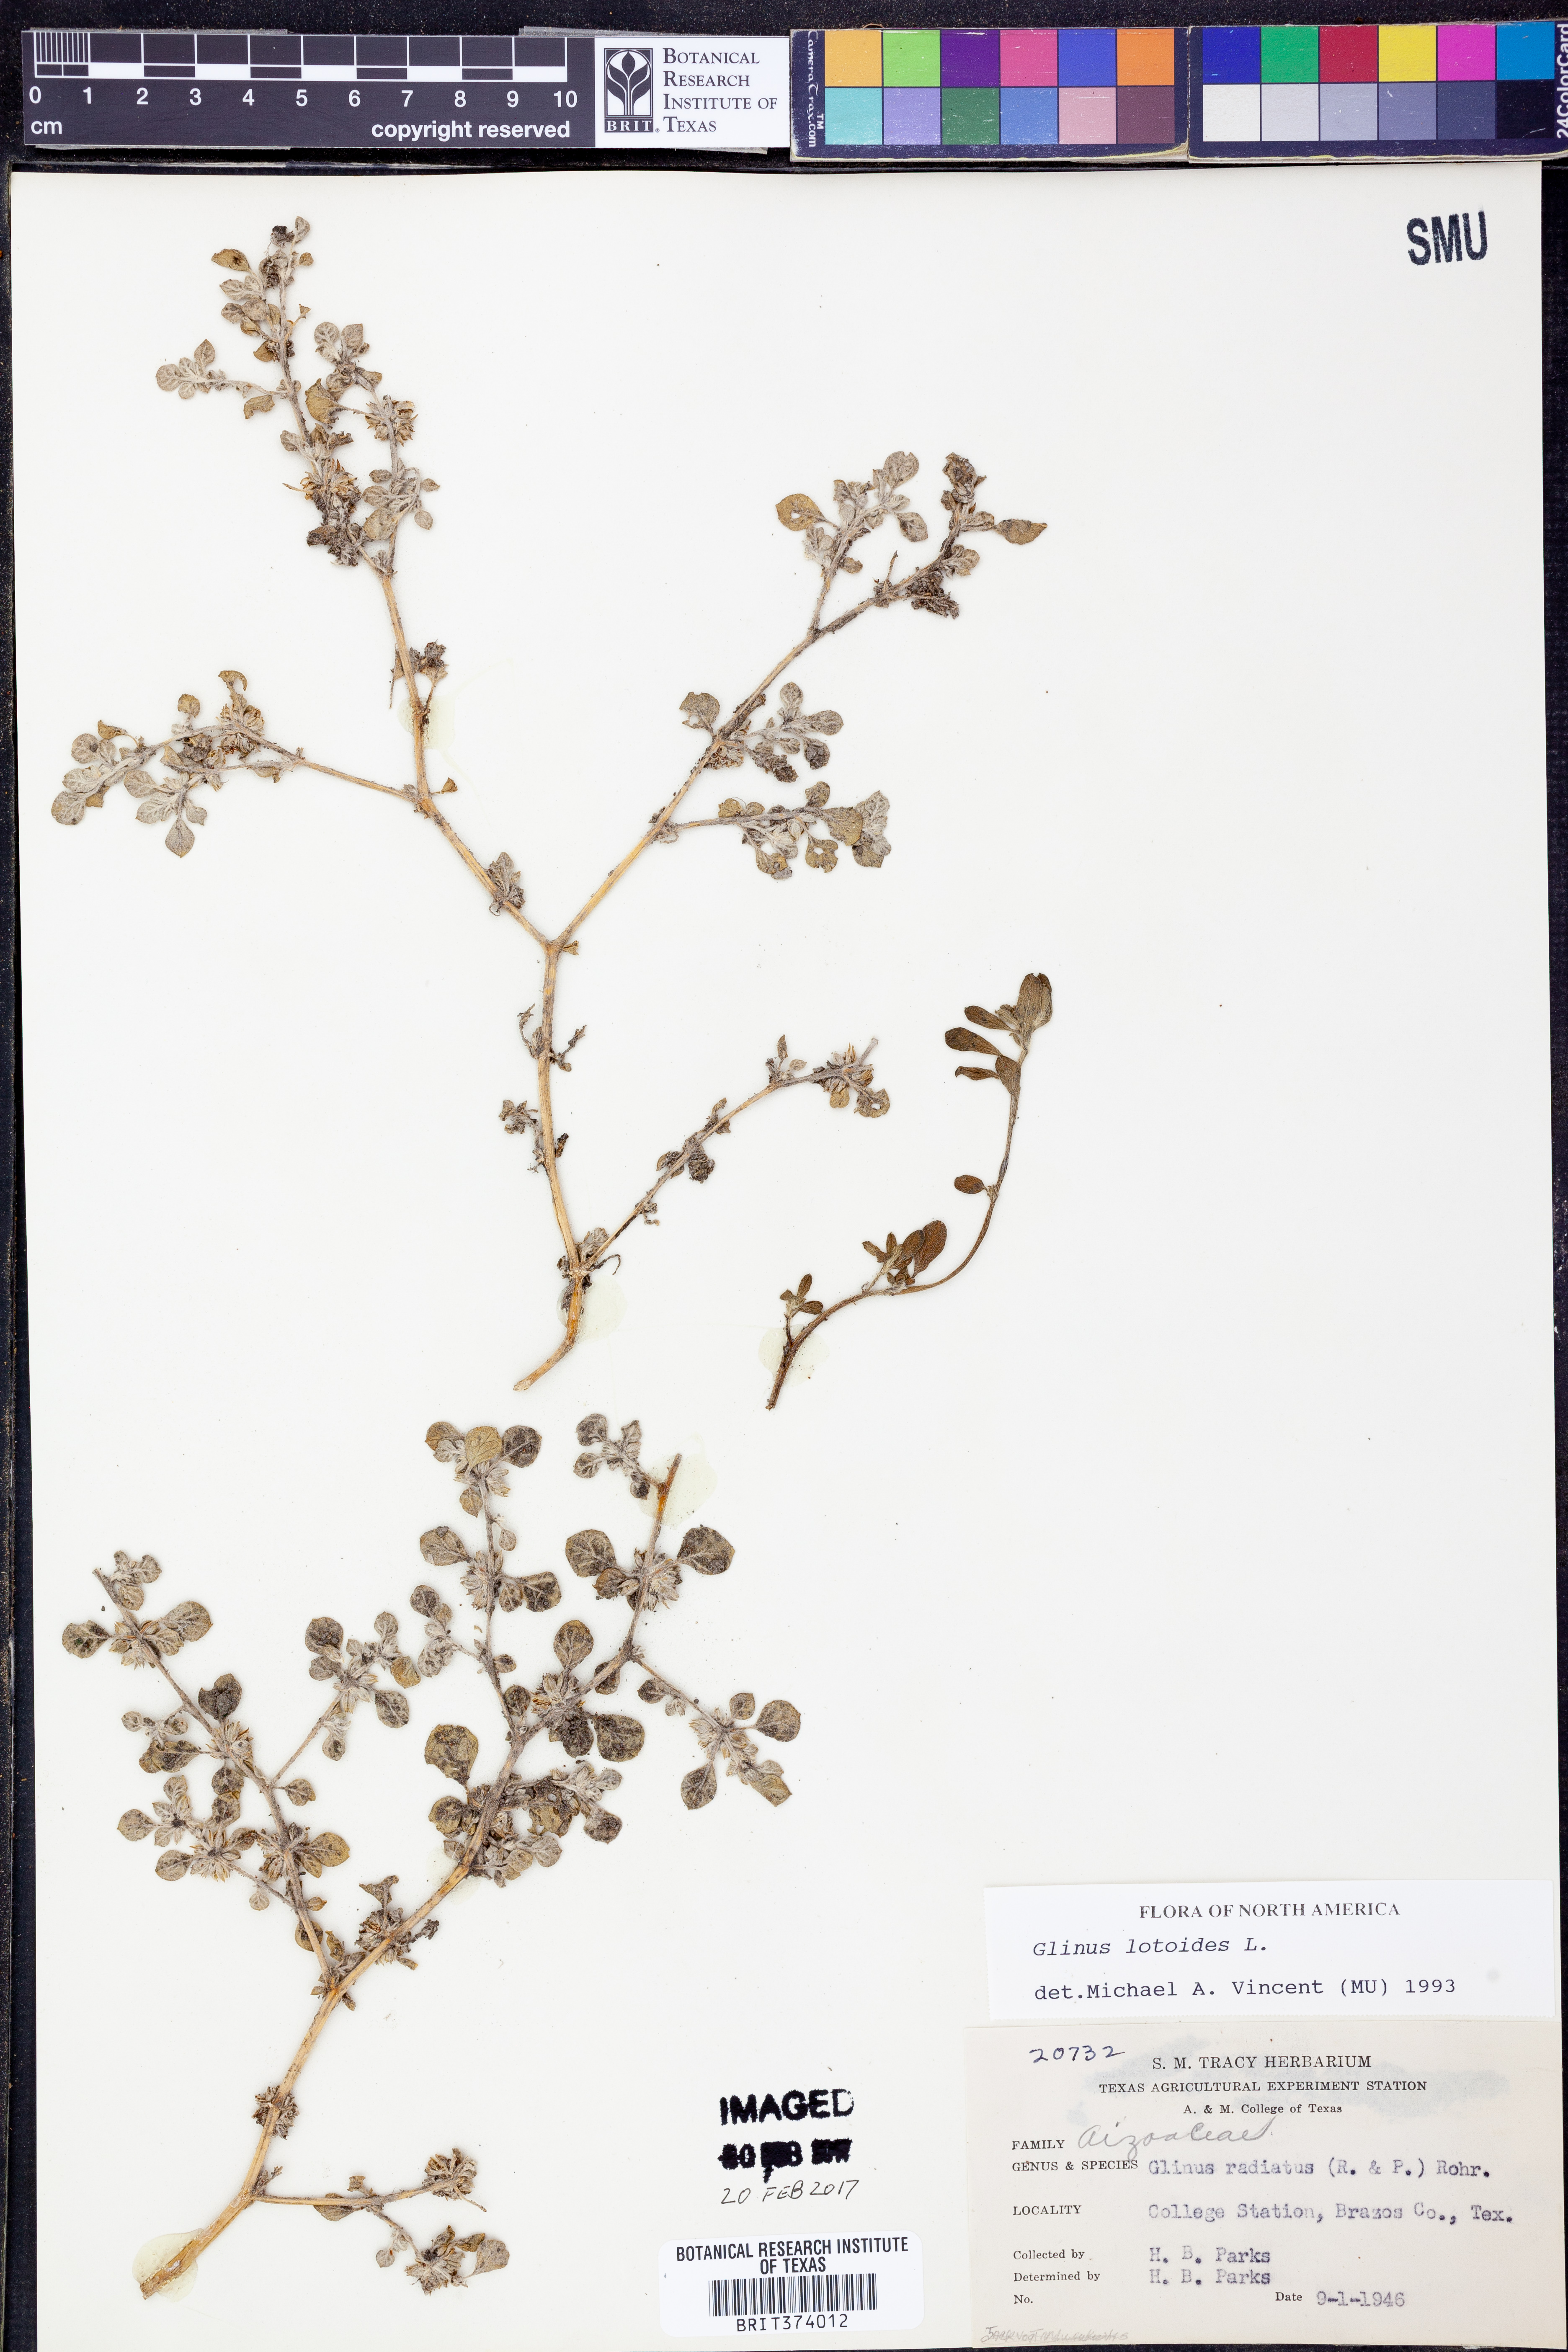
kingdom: Plantae
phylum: Tracheophyta
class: Magnoliopsida
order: Caryophyllales
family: Molluginaceae
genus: Glinus
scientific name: Glinus lotoides
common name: Lotus sweetjuice
